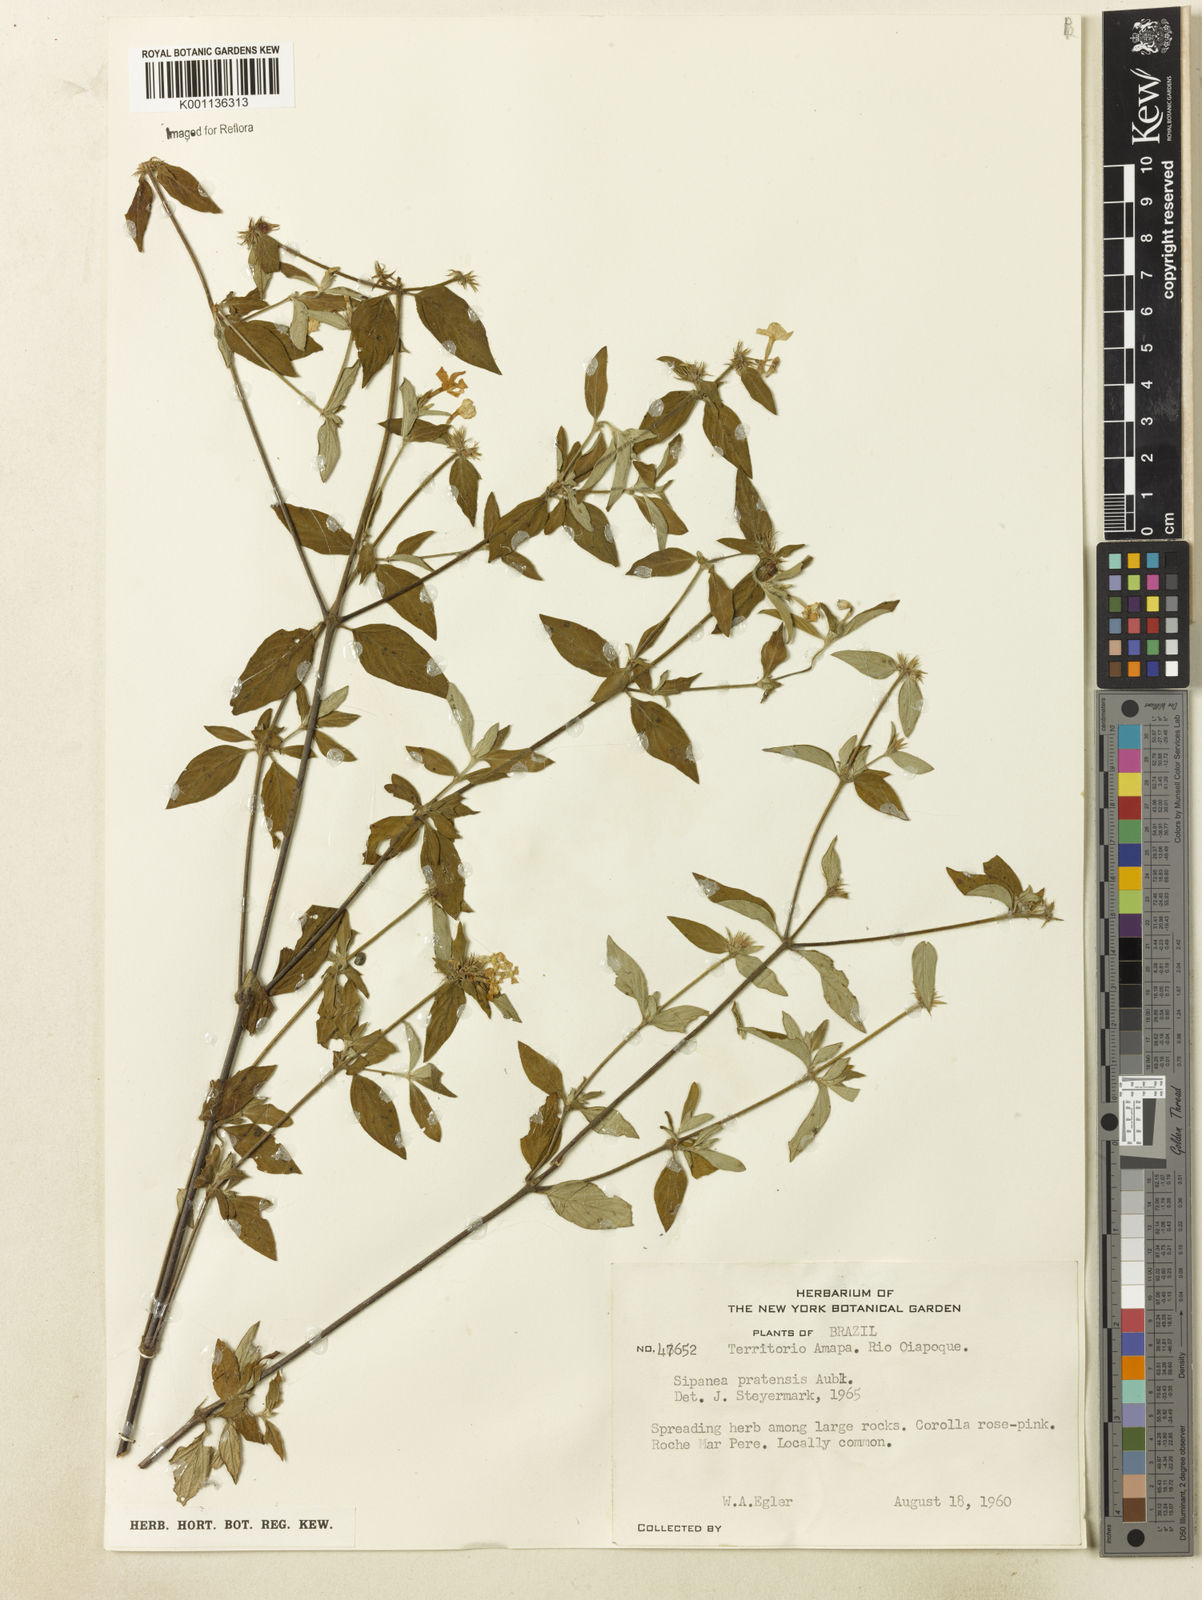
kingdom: Plantae
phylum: Tracheophyta
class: Magnoliopsida
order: Gentianales
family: Rubiaceae
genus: Sipanea
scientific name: Sipanea pratensis
